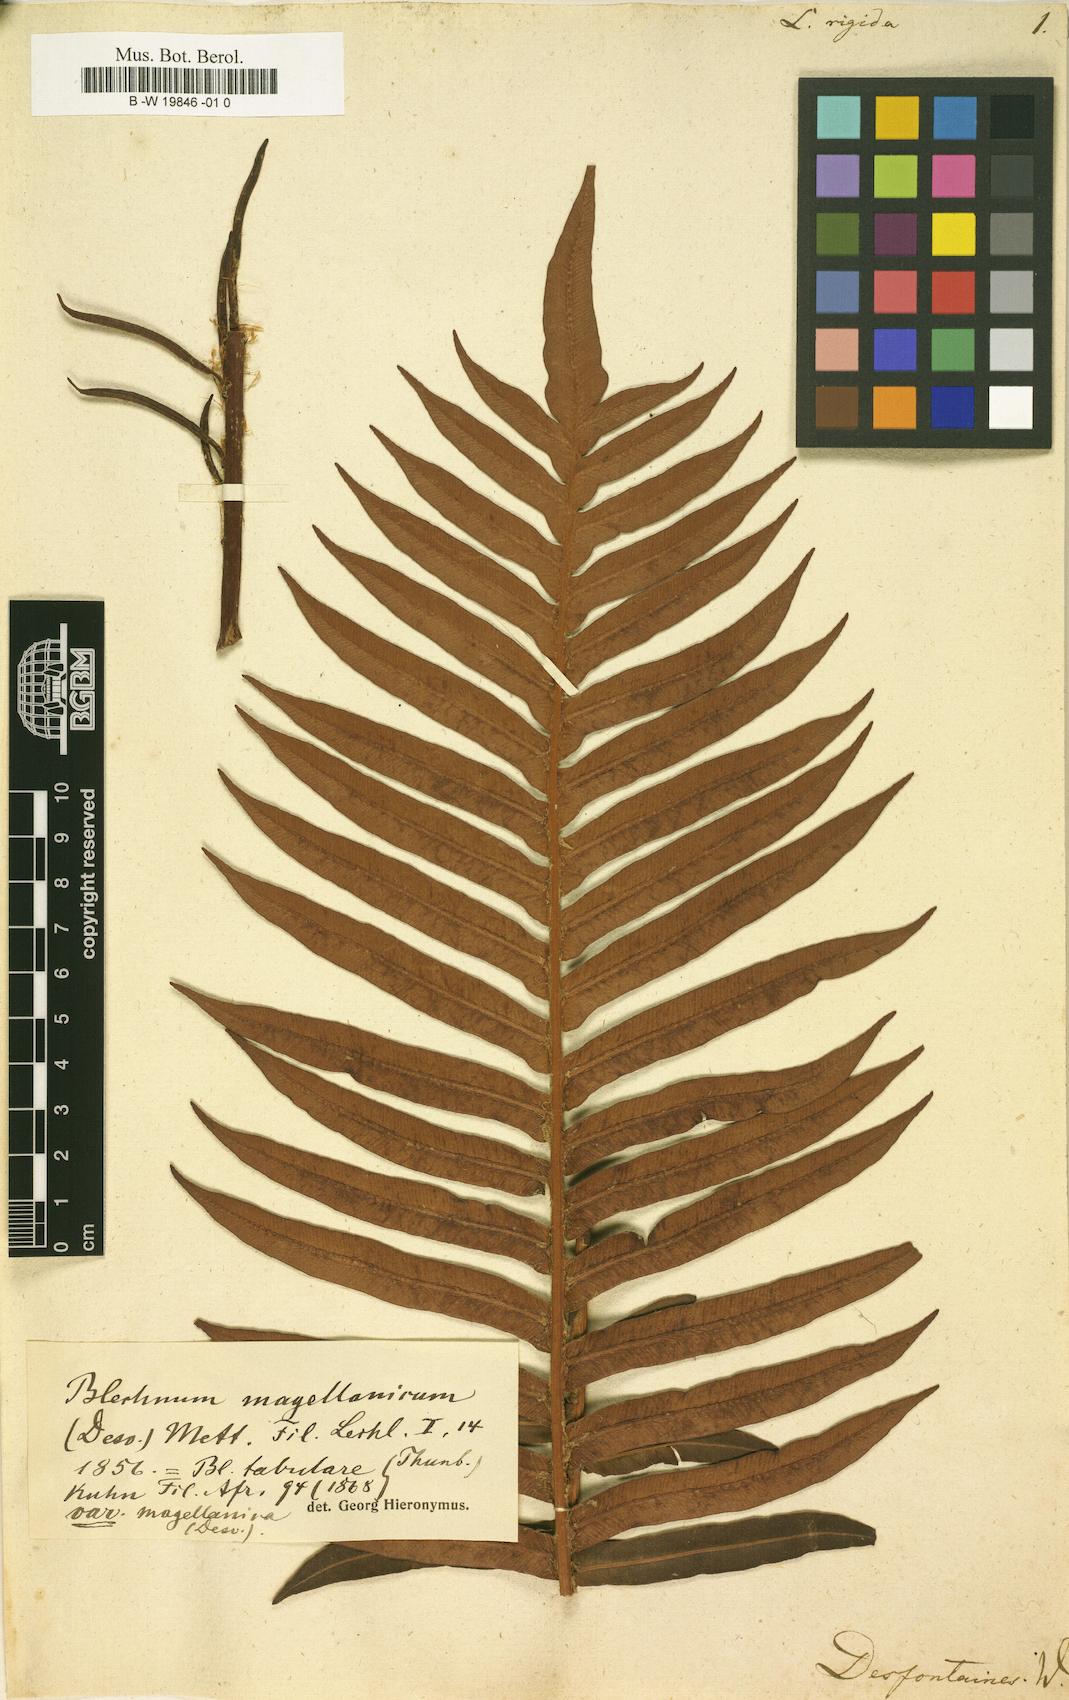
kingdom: Plantae
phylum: Tracheophyta
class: Polypodiopsida
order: Polypodiales
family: Blechnaceae
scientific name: Blechnaceae
